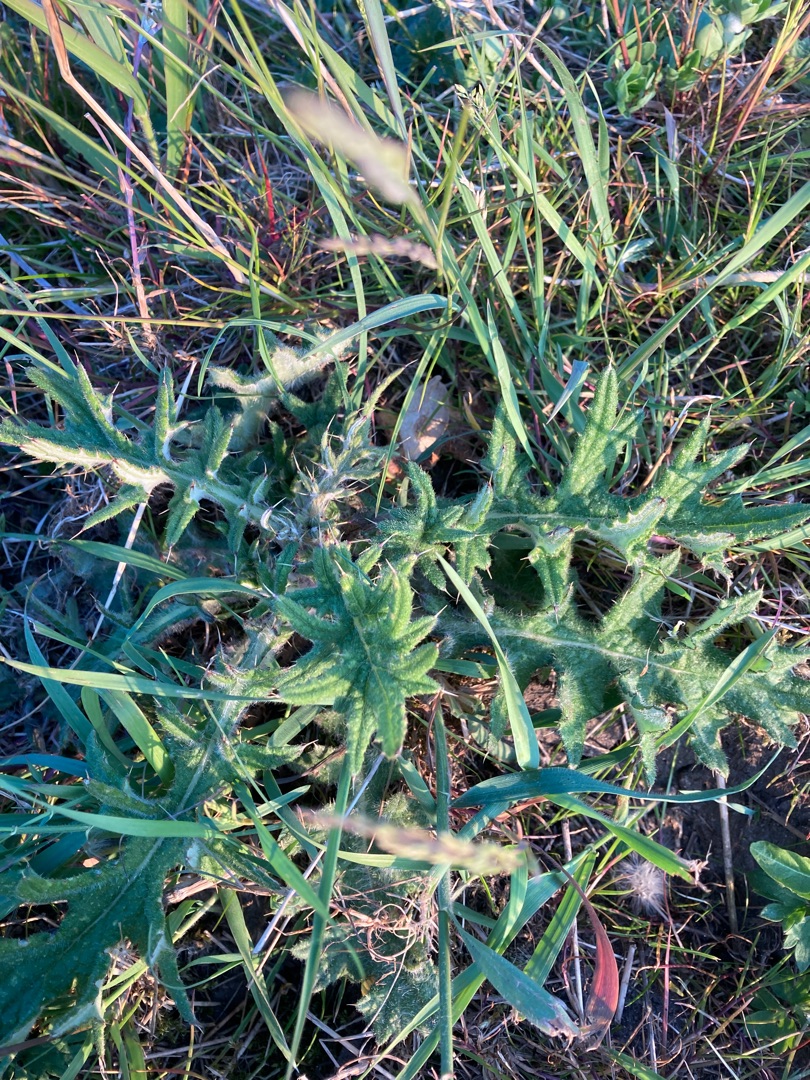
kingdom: Plantae
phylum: Tracheophyta
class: Magnoliopsida
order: Asterales
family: Asteraceae
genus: Cirsium
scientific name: Cirsium vulgare
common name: Horse-tidsel
